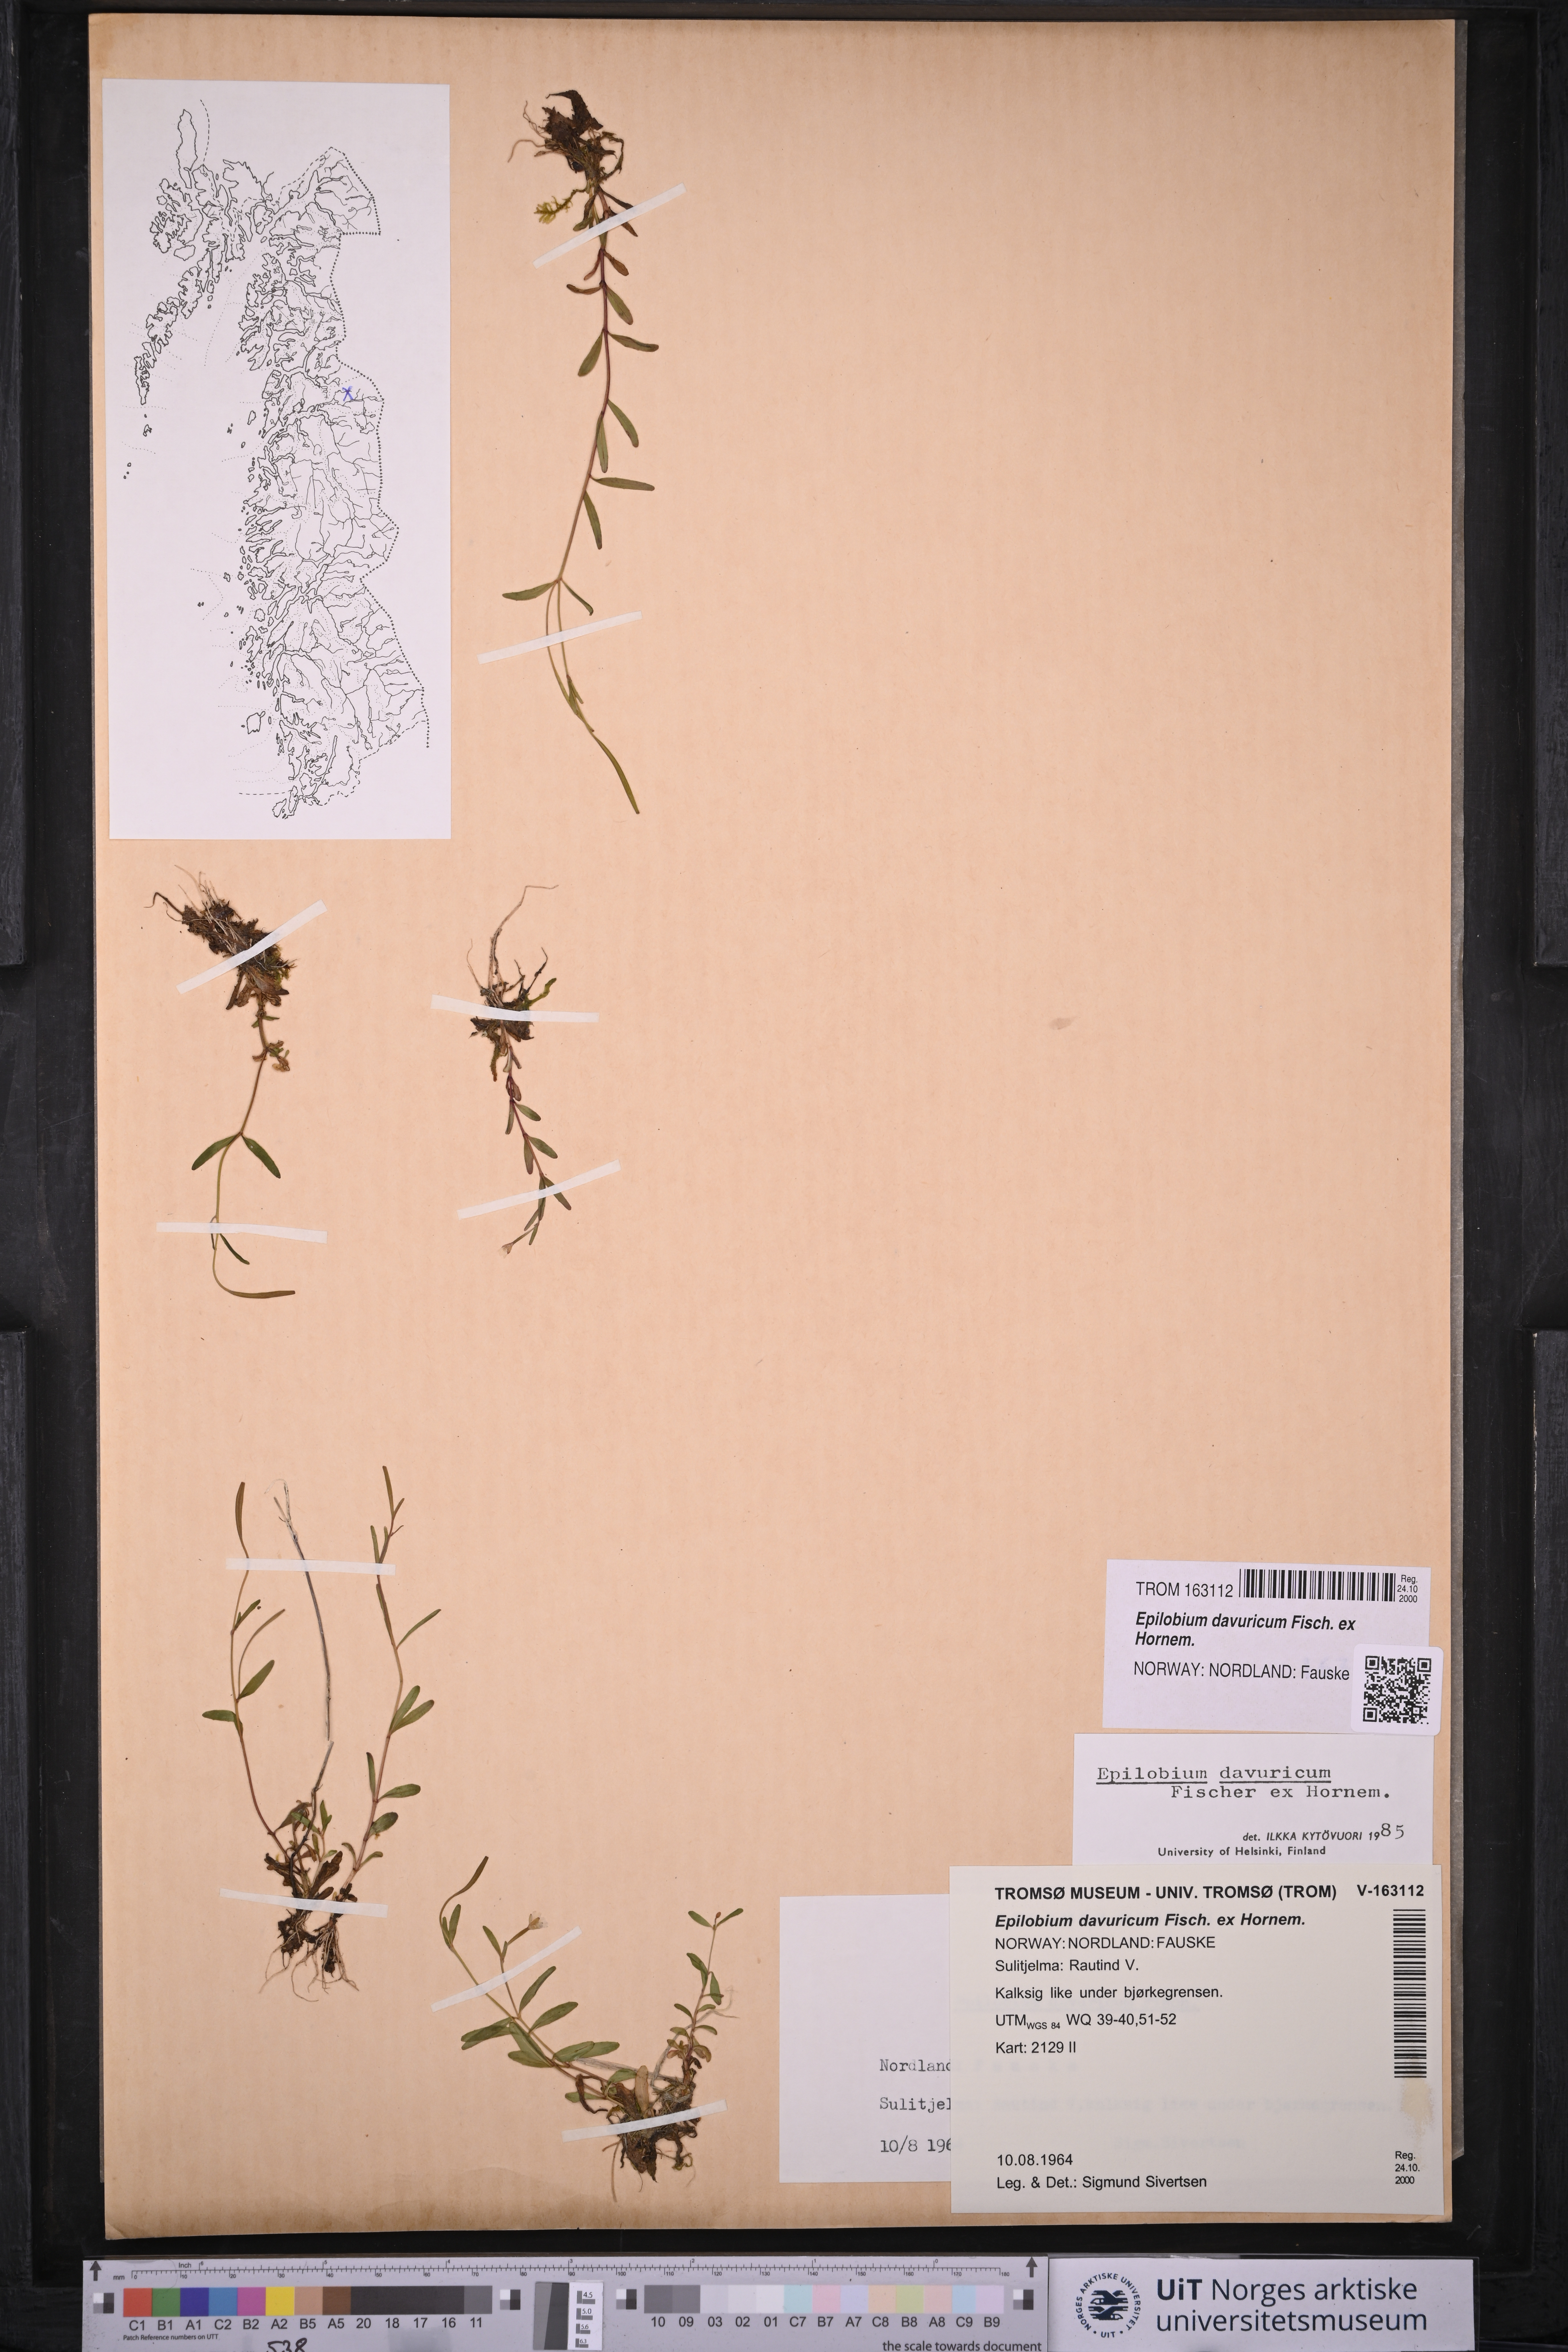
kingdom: Plantae
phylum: Tracheophyta
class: Magnoliopsida
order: Myrtales
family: Onagraceae
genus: Epilobium
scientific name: Epilobium davuricum
